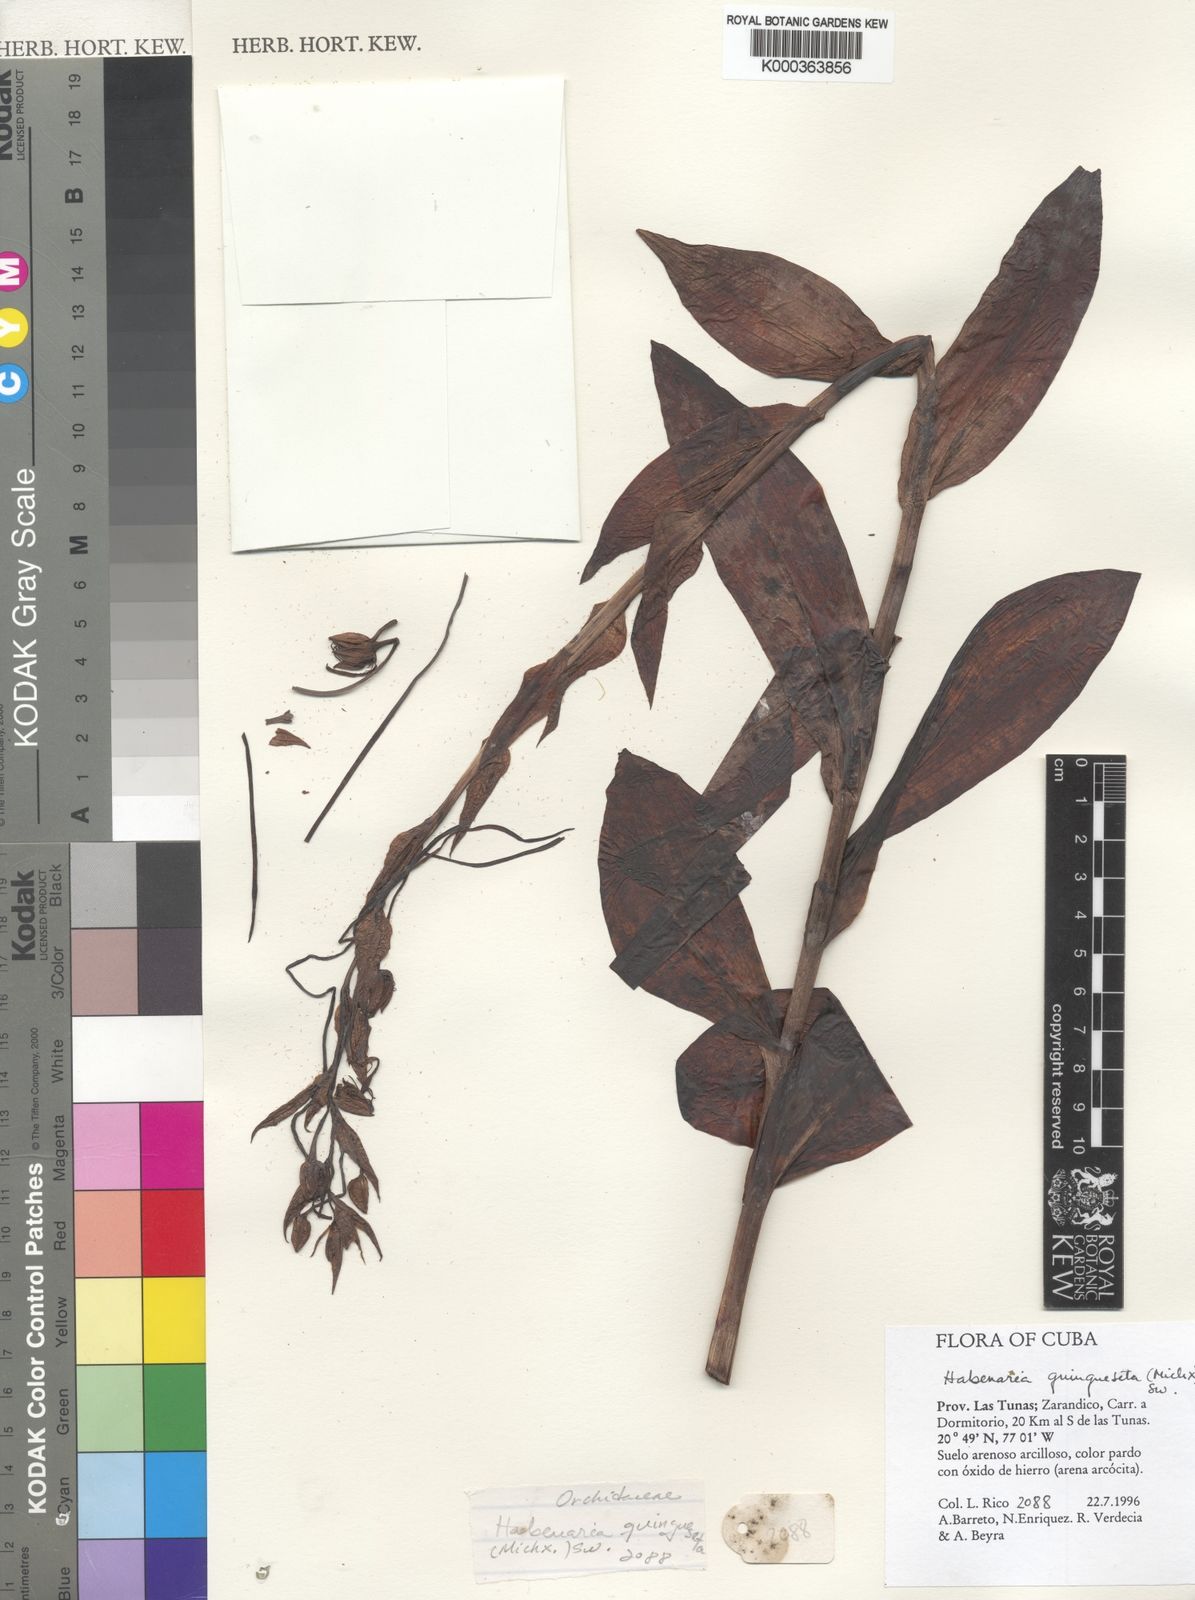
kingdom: Plantae
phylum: Tracheophyta
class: Liliopsida
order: Asparagales
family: Orchidaceae
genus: Habenaria
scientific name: Habenaria
